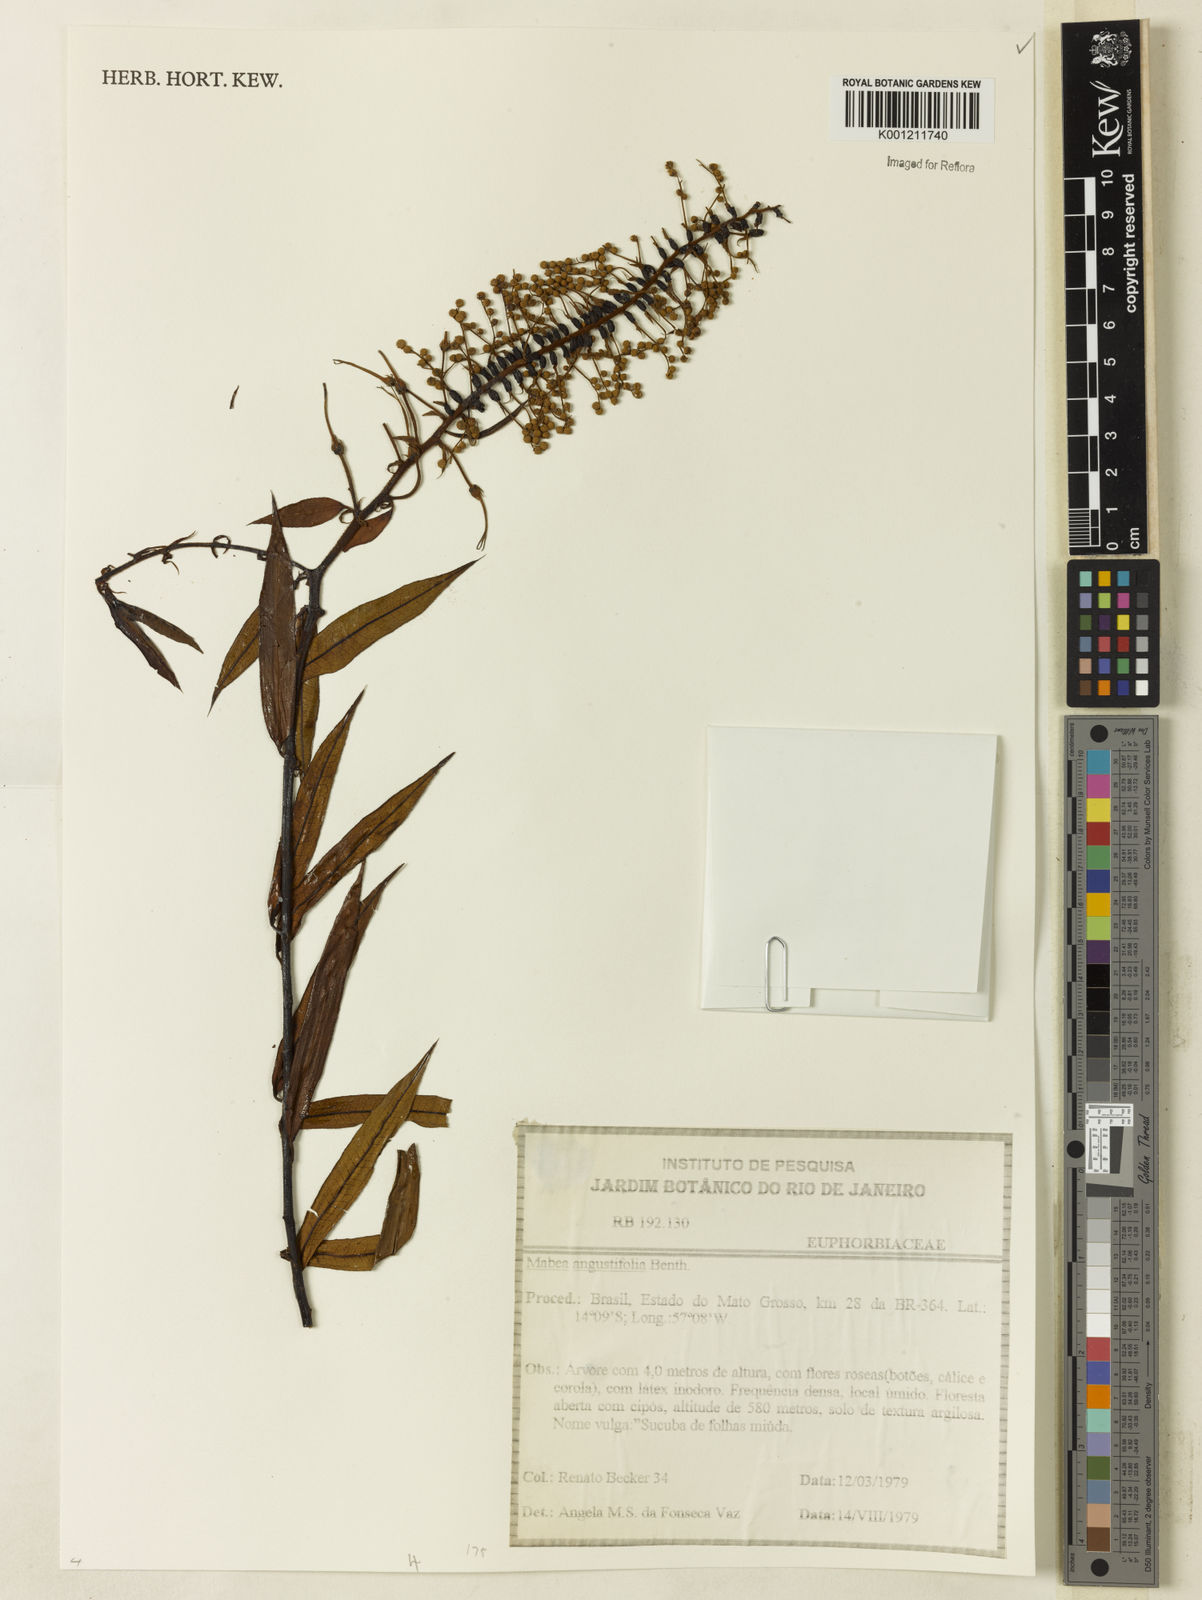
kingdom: Plantae
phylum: Tracheophyta
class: Magnoliopsida
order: Malpighiales
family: Euphorbiaceae
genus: Mabea
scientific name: Mabea angustifolia
